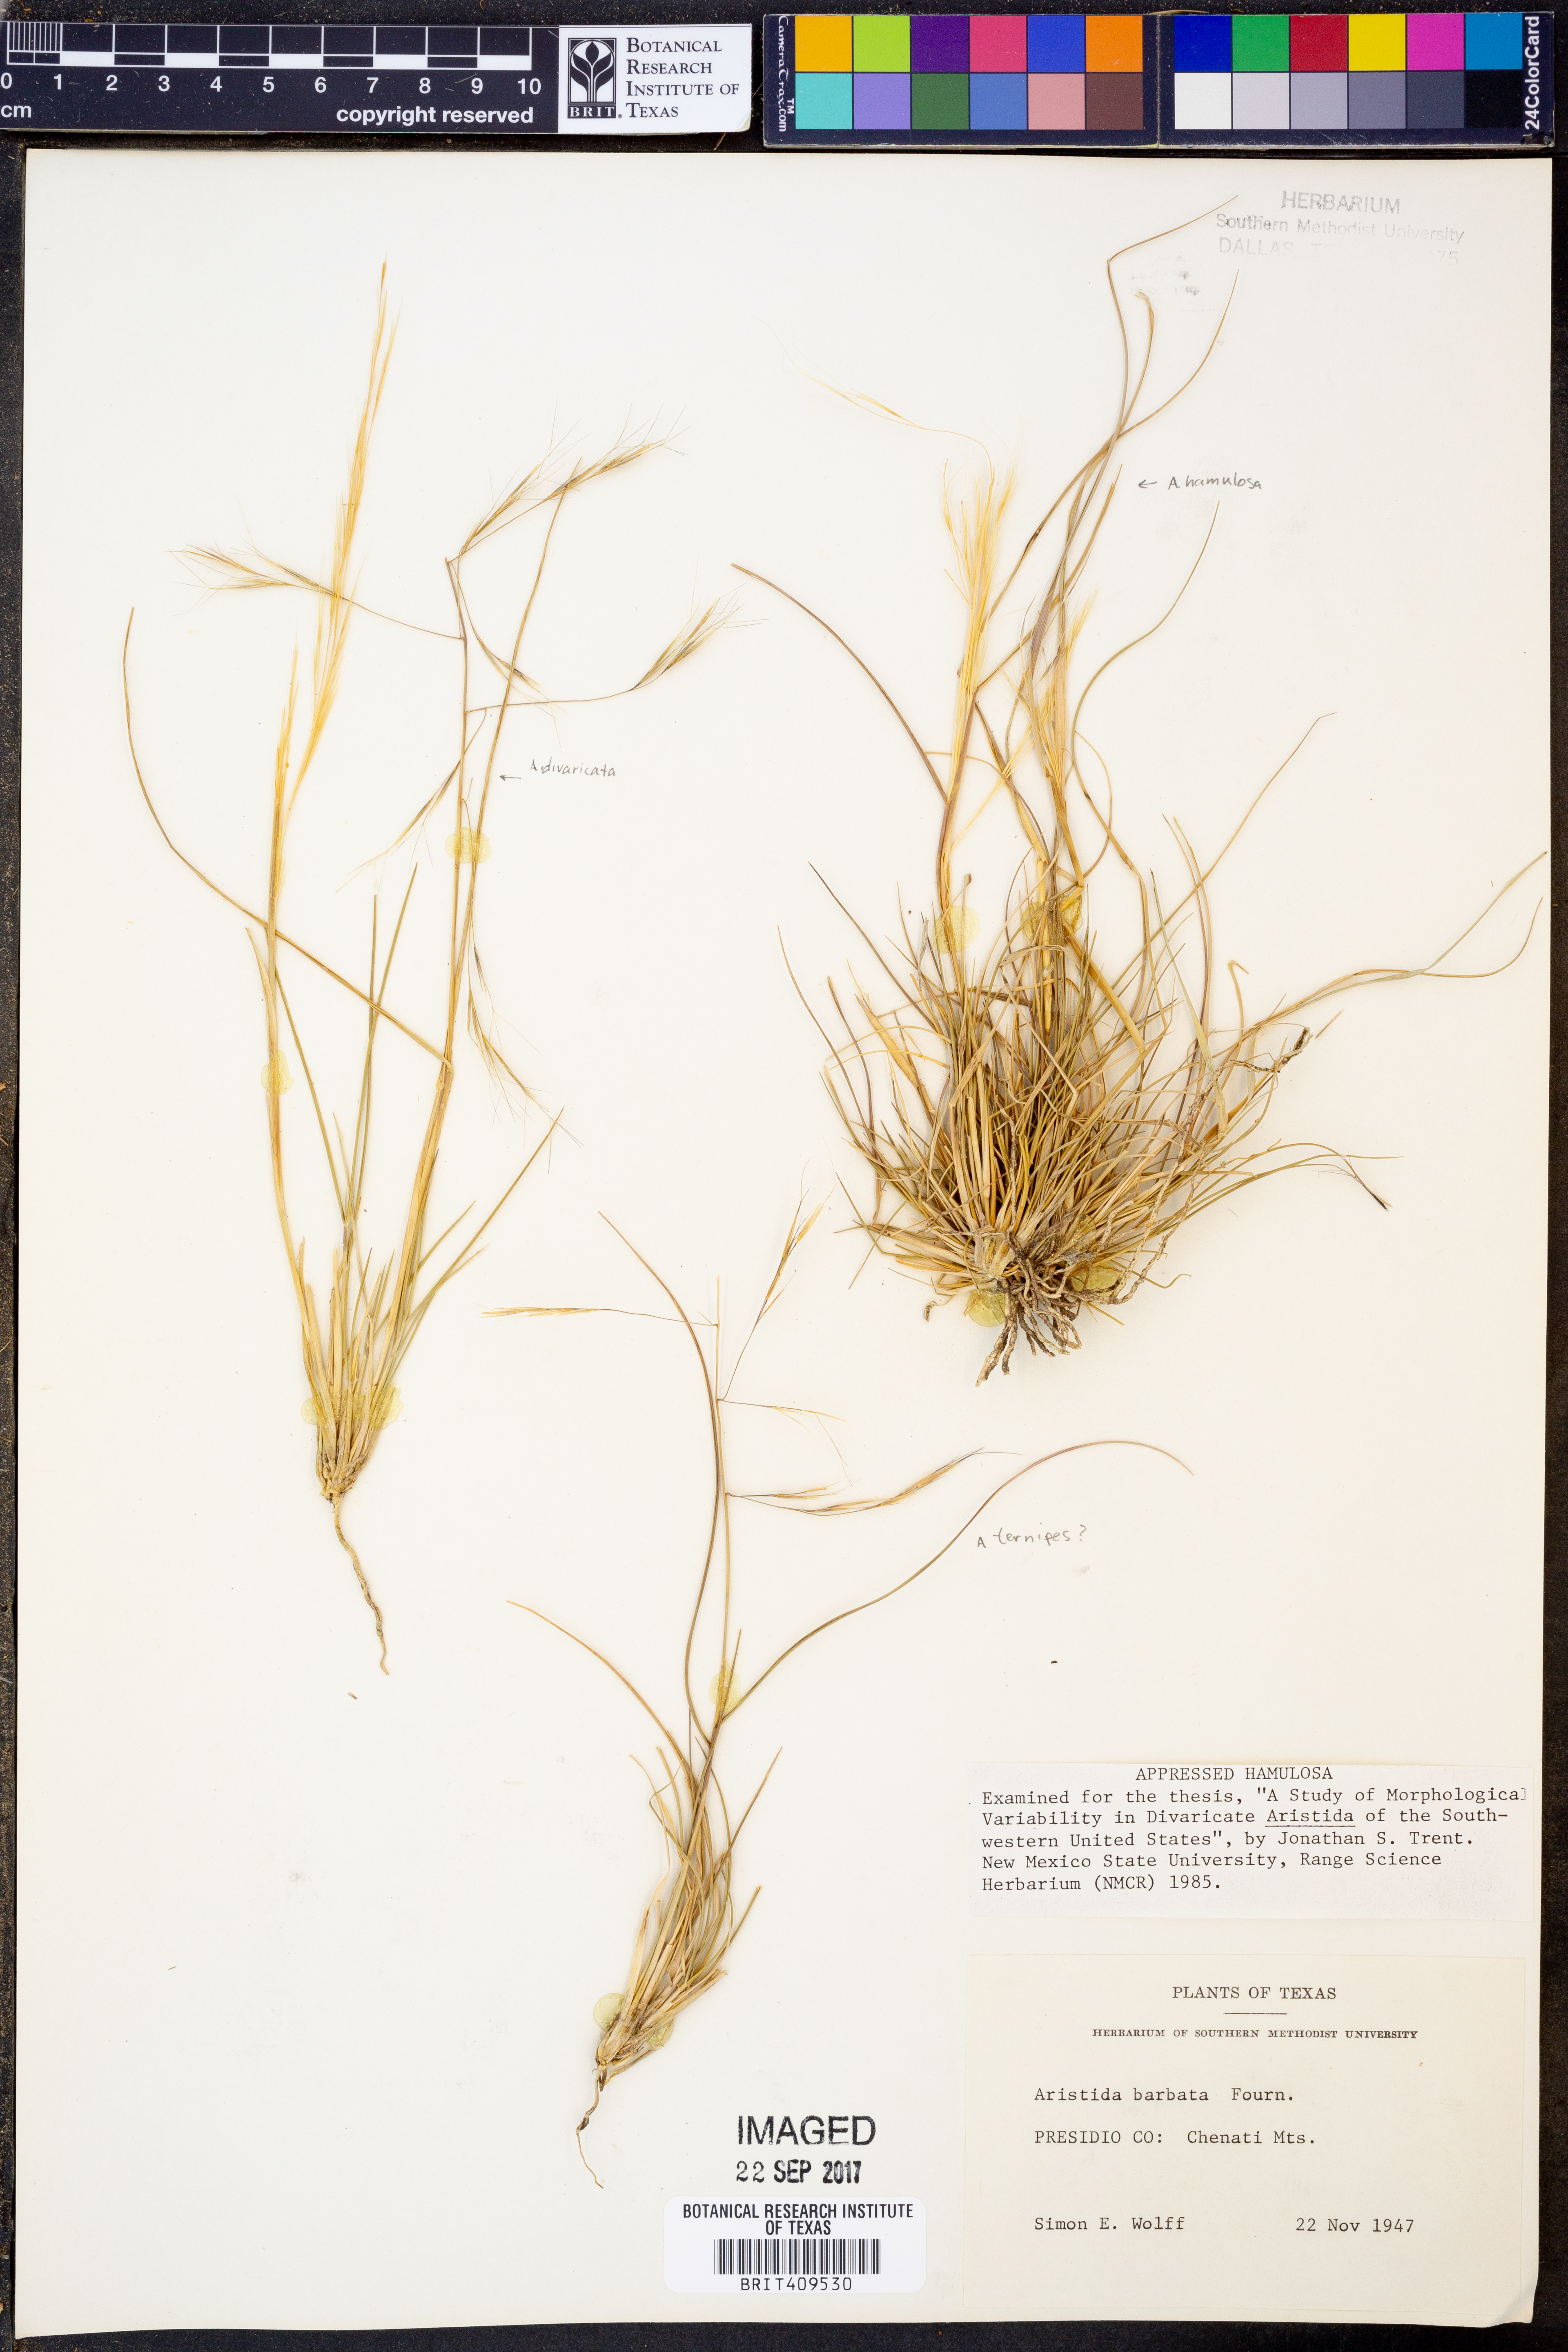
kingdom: Plantae
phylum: Tracheophyta
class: Liliopsida
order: Poales
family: Poaceae
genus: Aristida
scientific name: Aristida barbata
